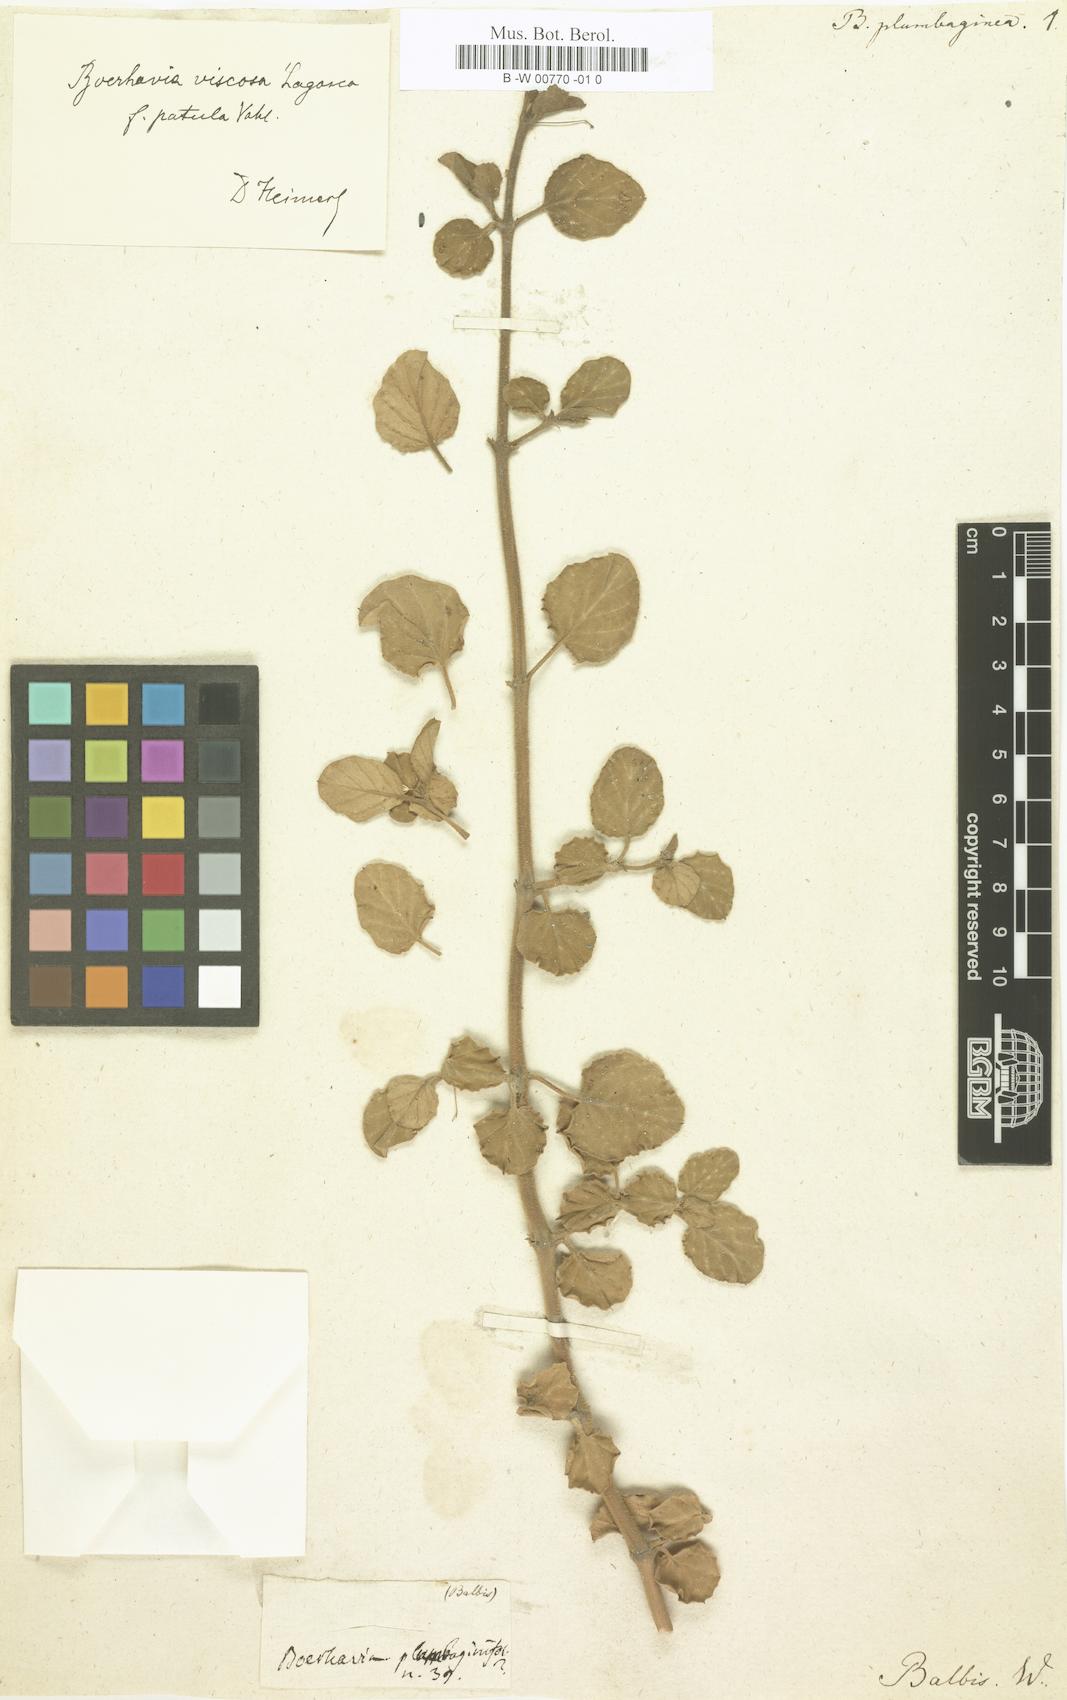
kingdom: Plantae
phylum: Tracheophyta
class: Magnoliopsida
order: Caryophyllales
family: Nyctaginaceae
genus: Commicarpus
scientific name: Commicarpus plumbagineus
